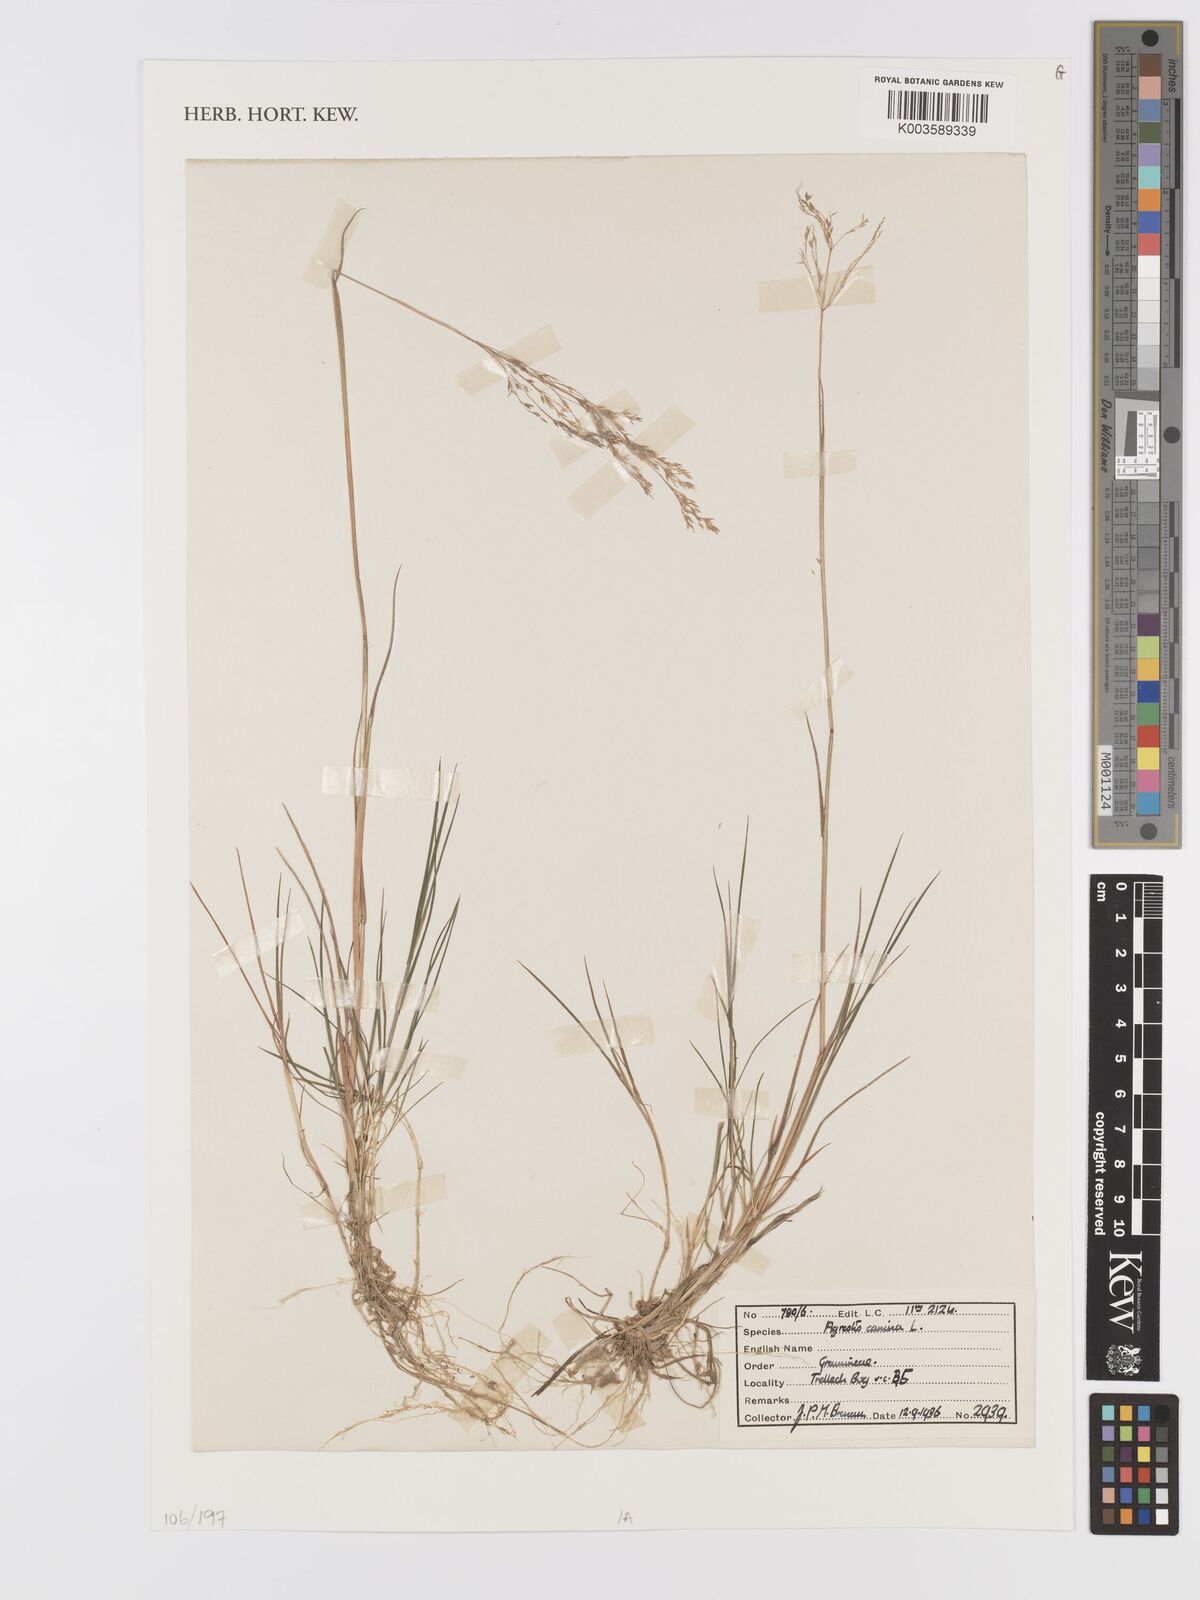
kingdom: Plantae
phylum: Tracheophyta
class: Liliopsida
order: Poales
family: Poaceae
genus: Agrostis
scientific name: Agrostis
